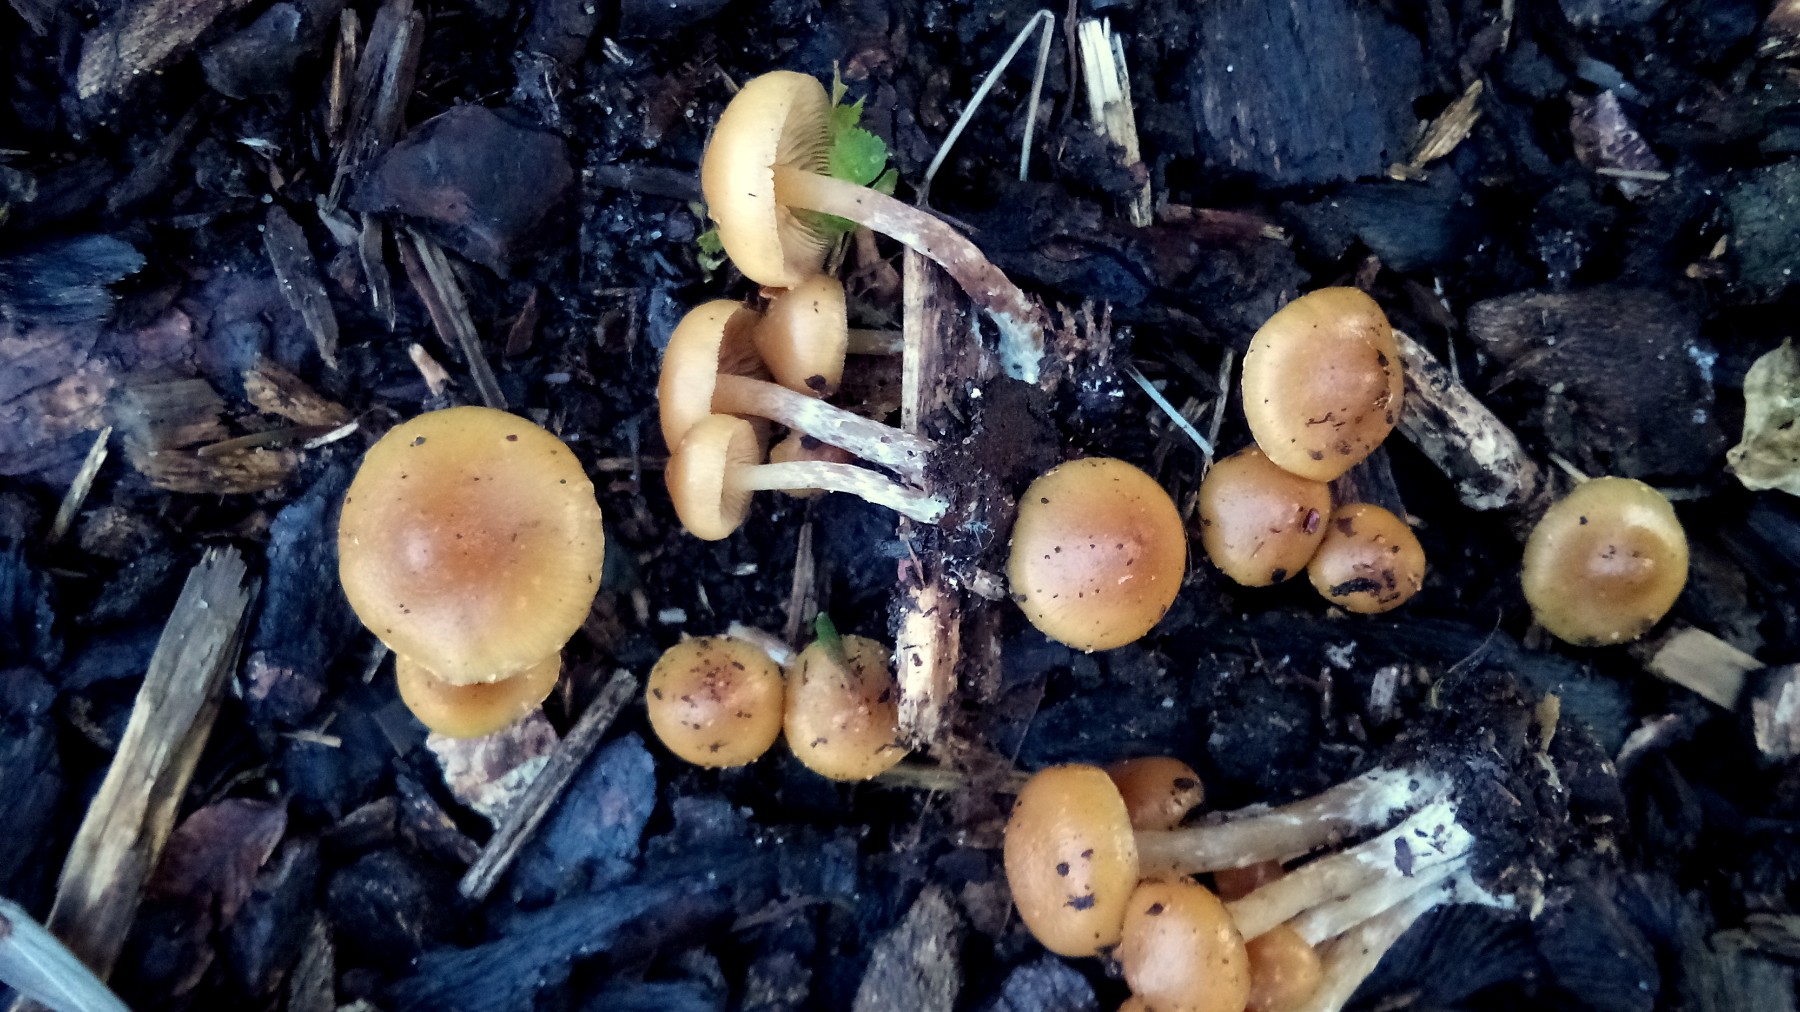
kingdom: Fungi
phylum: Basidiomycota
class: Agaricomycetes
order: Agaricales
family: Hymenogastraceae
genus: Galerina
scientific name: Galerina sideroides
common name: træflis-hjelmhat
